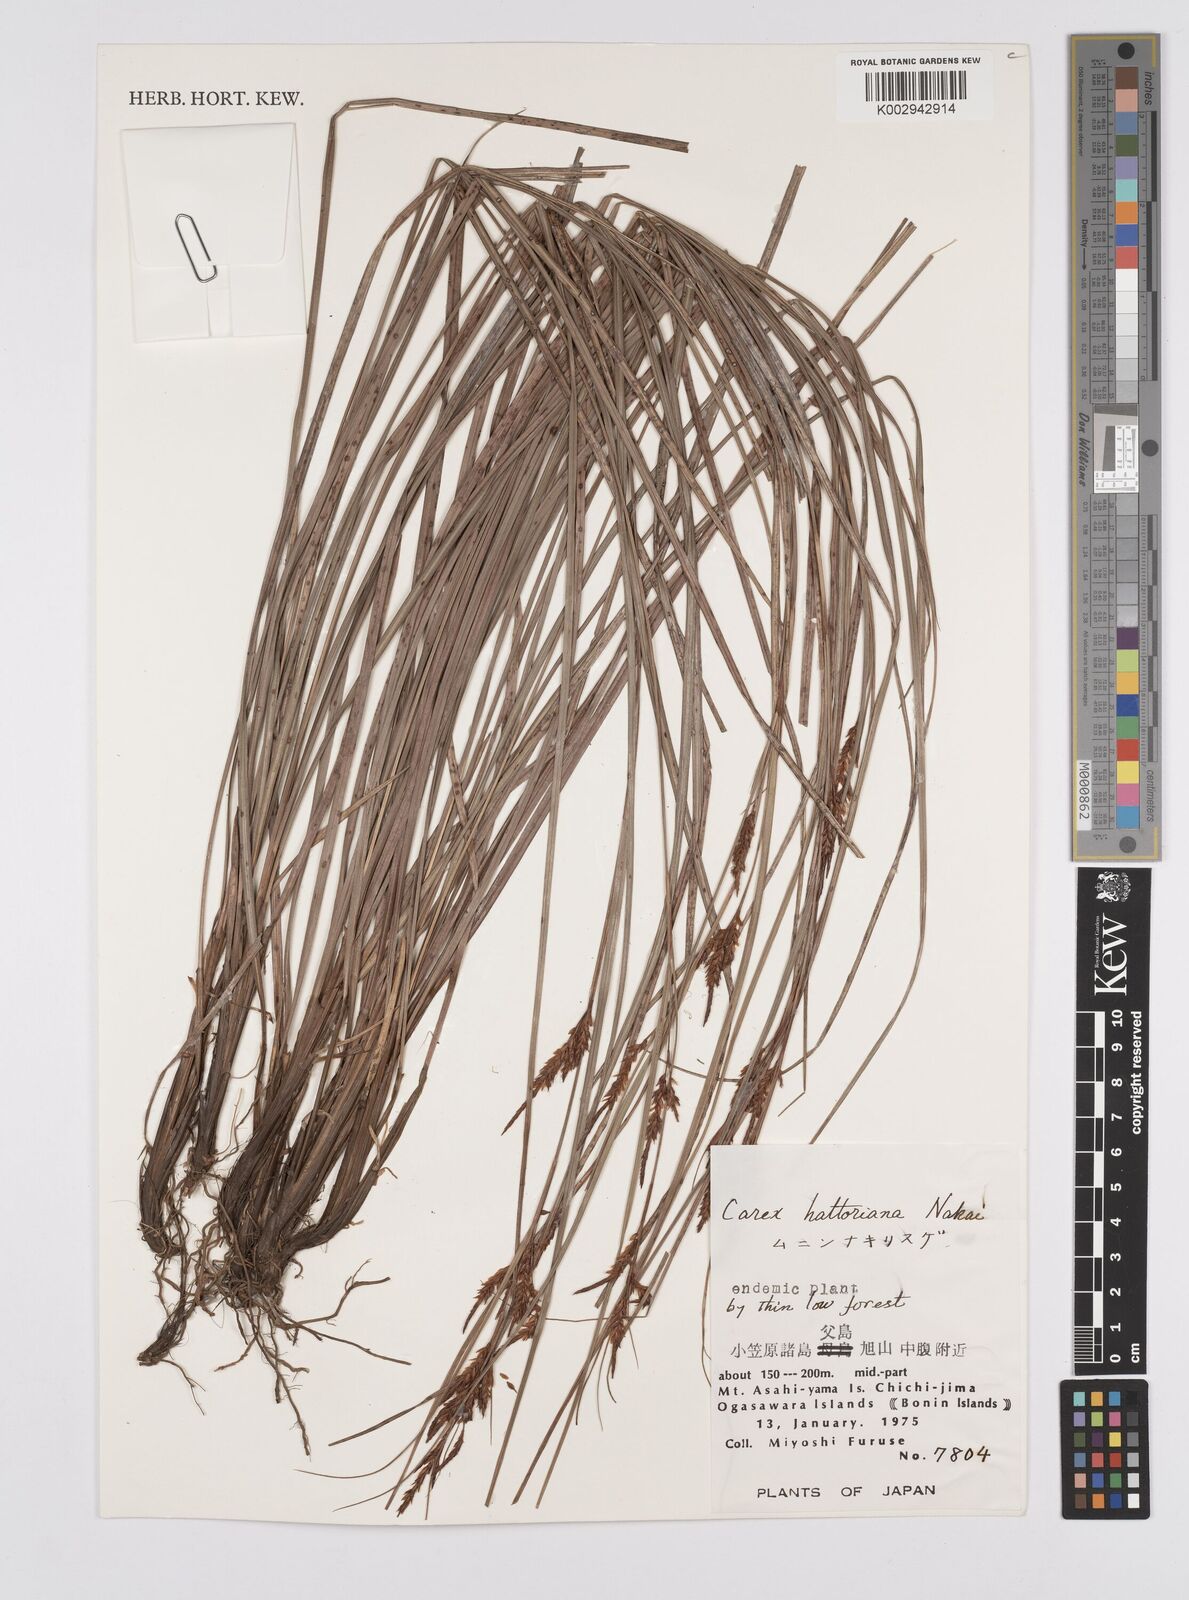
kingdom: Plantae
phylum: Tracheophyta
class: Liliopsida
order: Poales
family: Cyperaceae
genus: Carex
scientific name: Carex hattoriana
